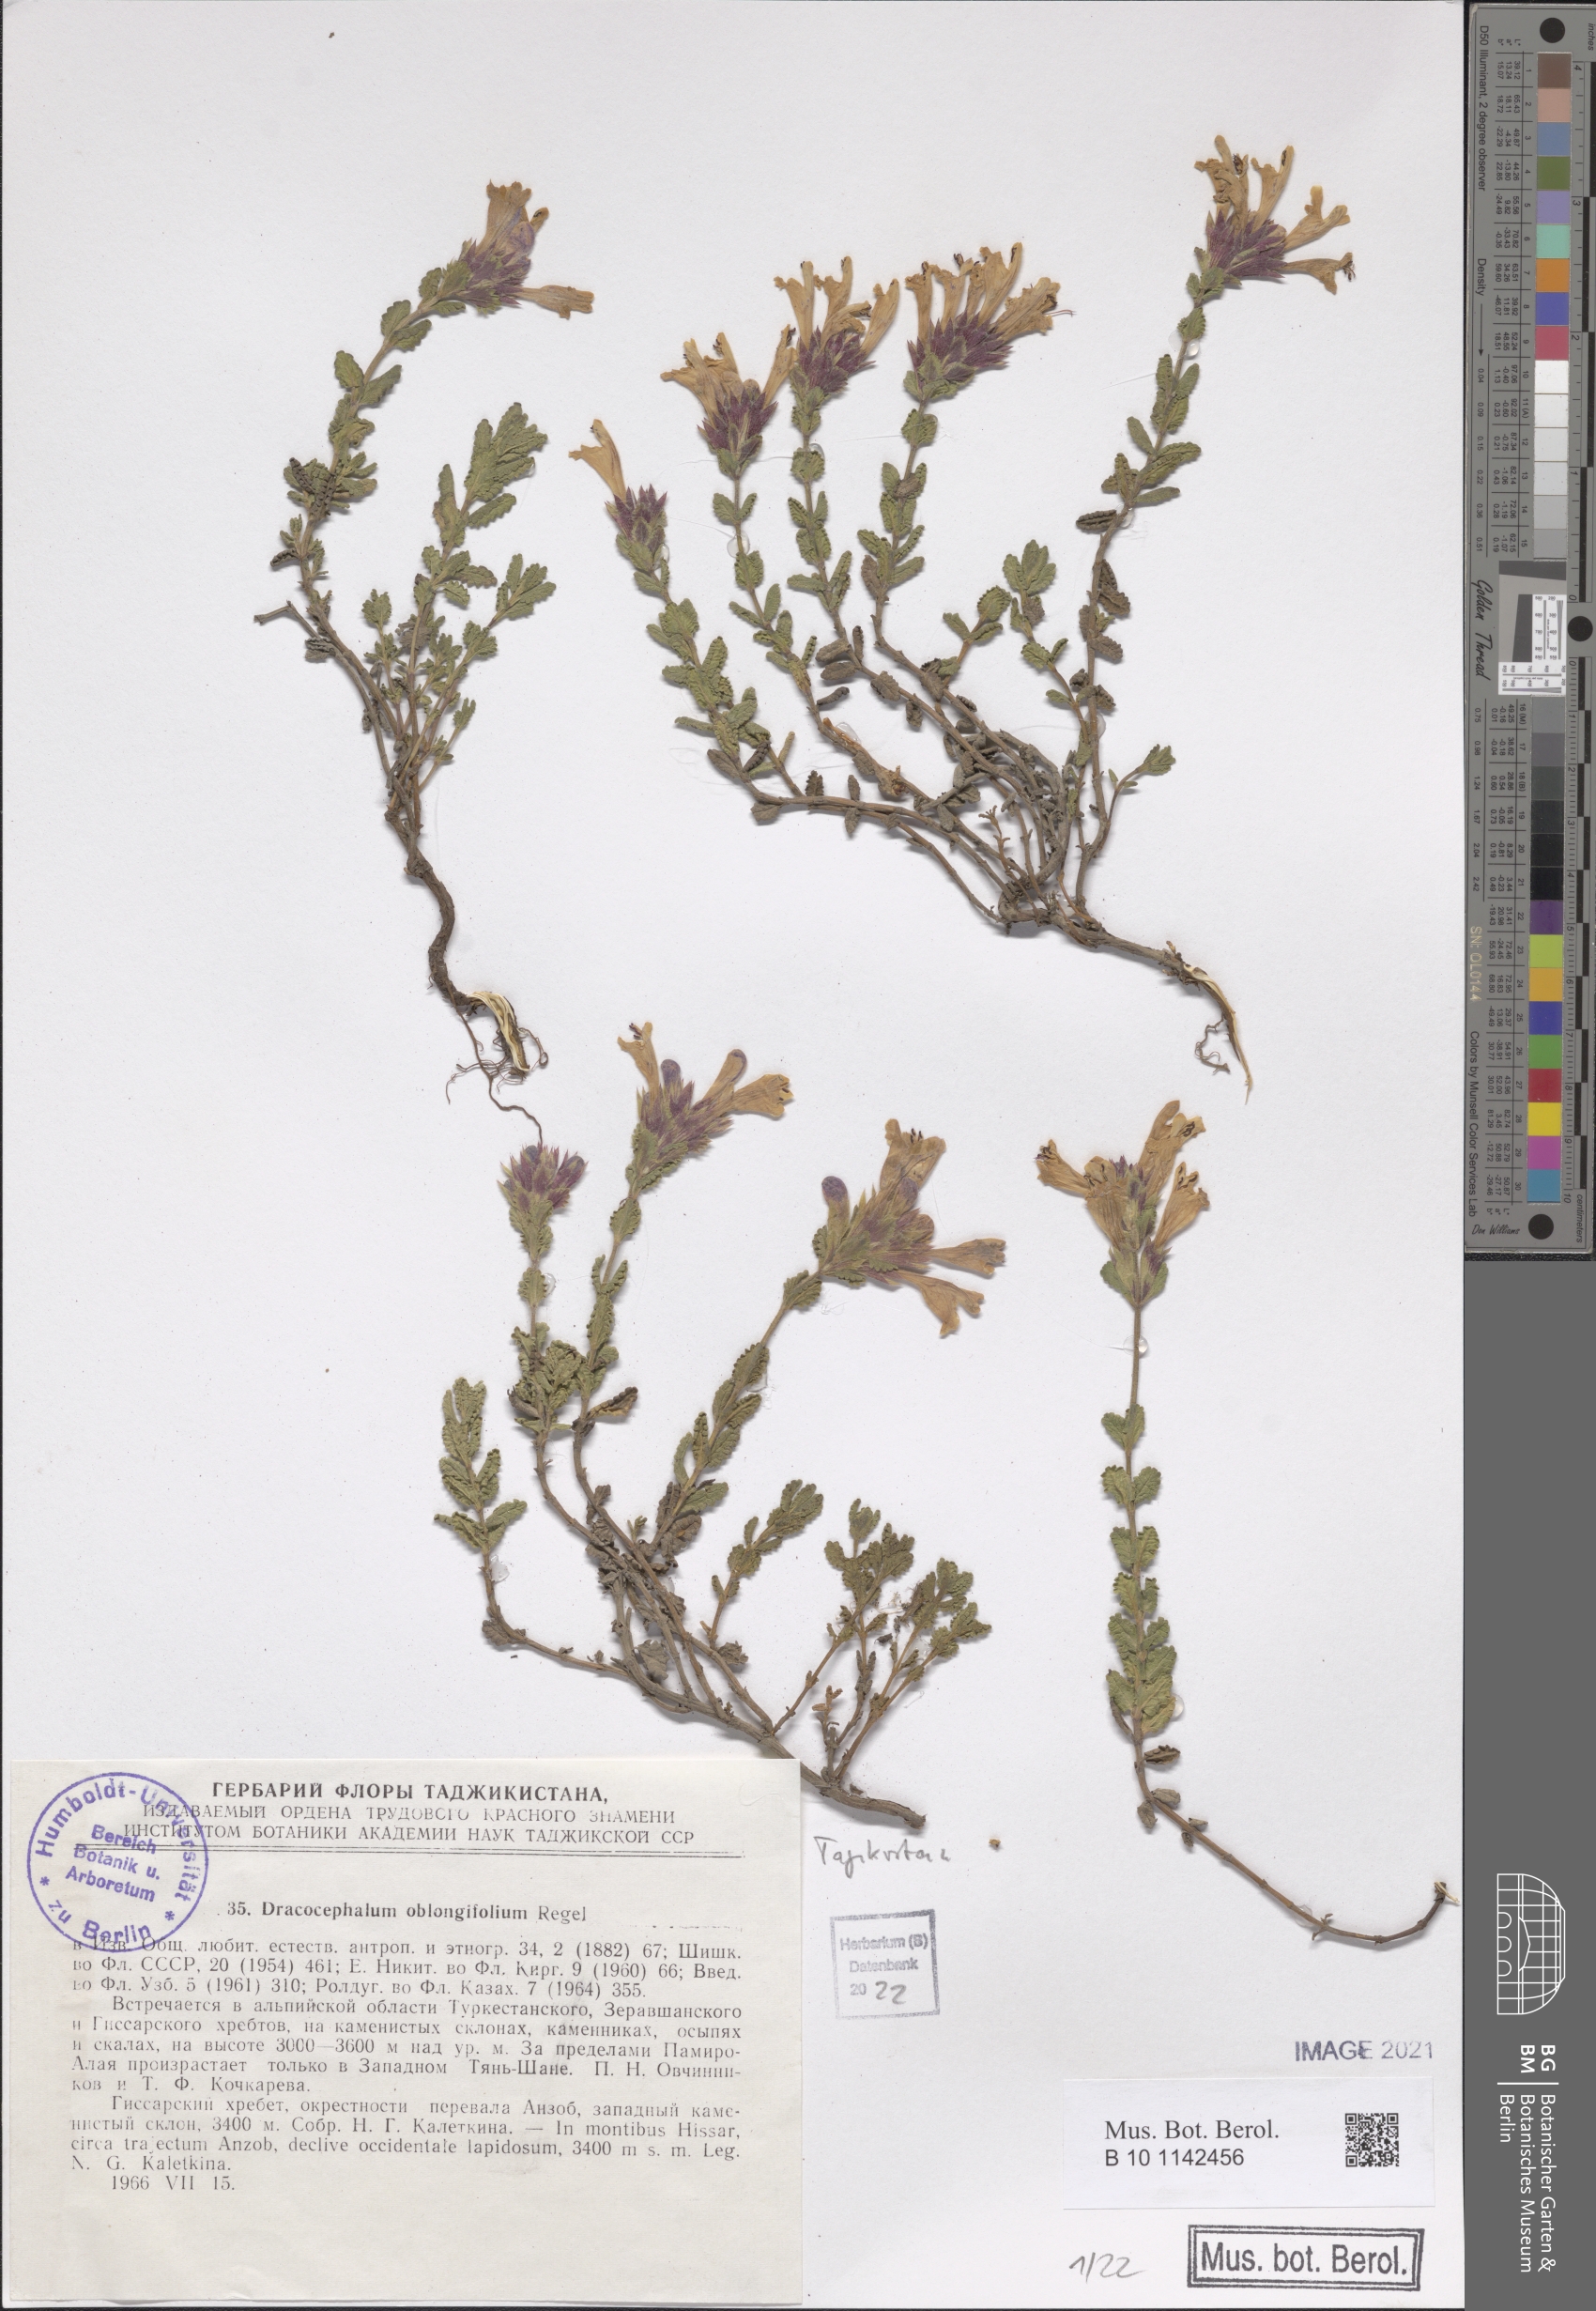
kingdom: Plantae
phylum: Tracheophyta
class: Magnoliopsida
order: Lamiales
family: Lamiaceae
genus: Dracocephalum
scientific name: Dracocephalum oblongifolium
